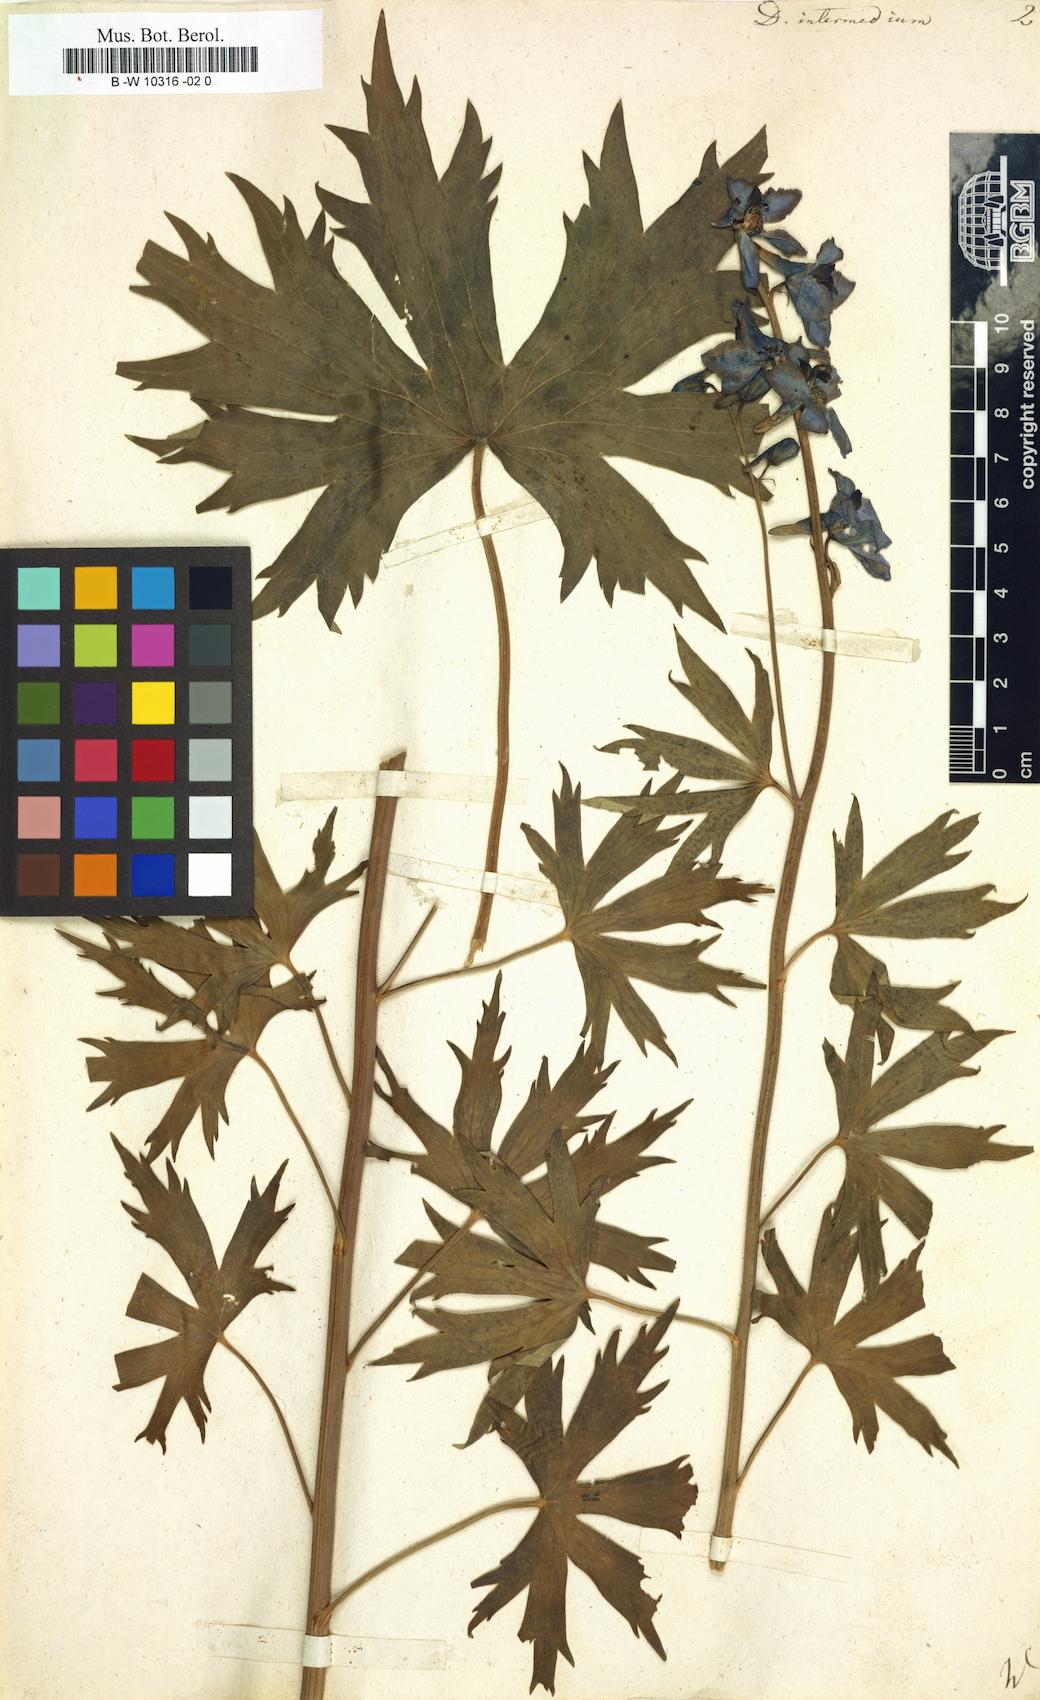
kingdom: Plantae
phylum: Tracheophyta
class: Magnoliopsida
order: Ranunculales
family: Ranunculaceae
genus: Delphinium
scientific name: Delphinium elatum
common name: Candle larkspur
